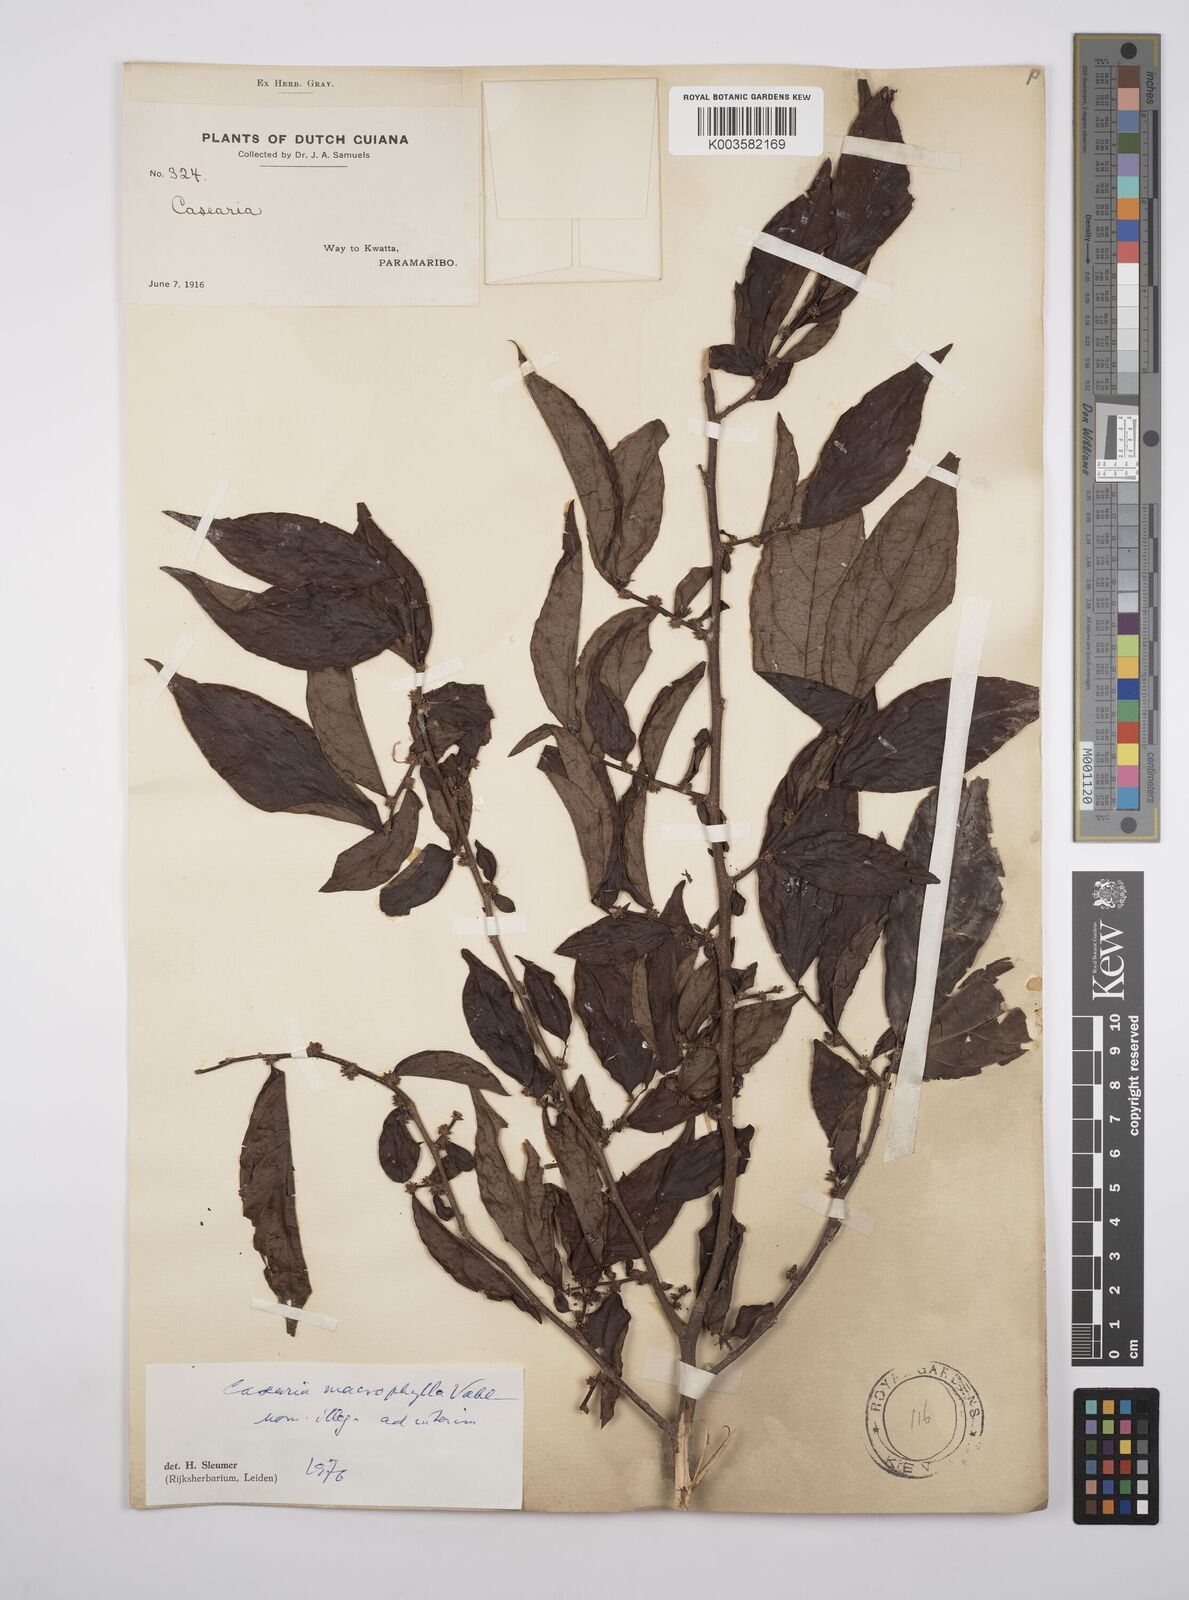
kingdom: Plantae
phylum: Tracheophyta
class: Magnoliopsida
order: Malpighiales
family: Salicaceae
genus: Casearia
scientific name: Casearia pitumba
